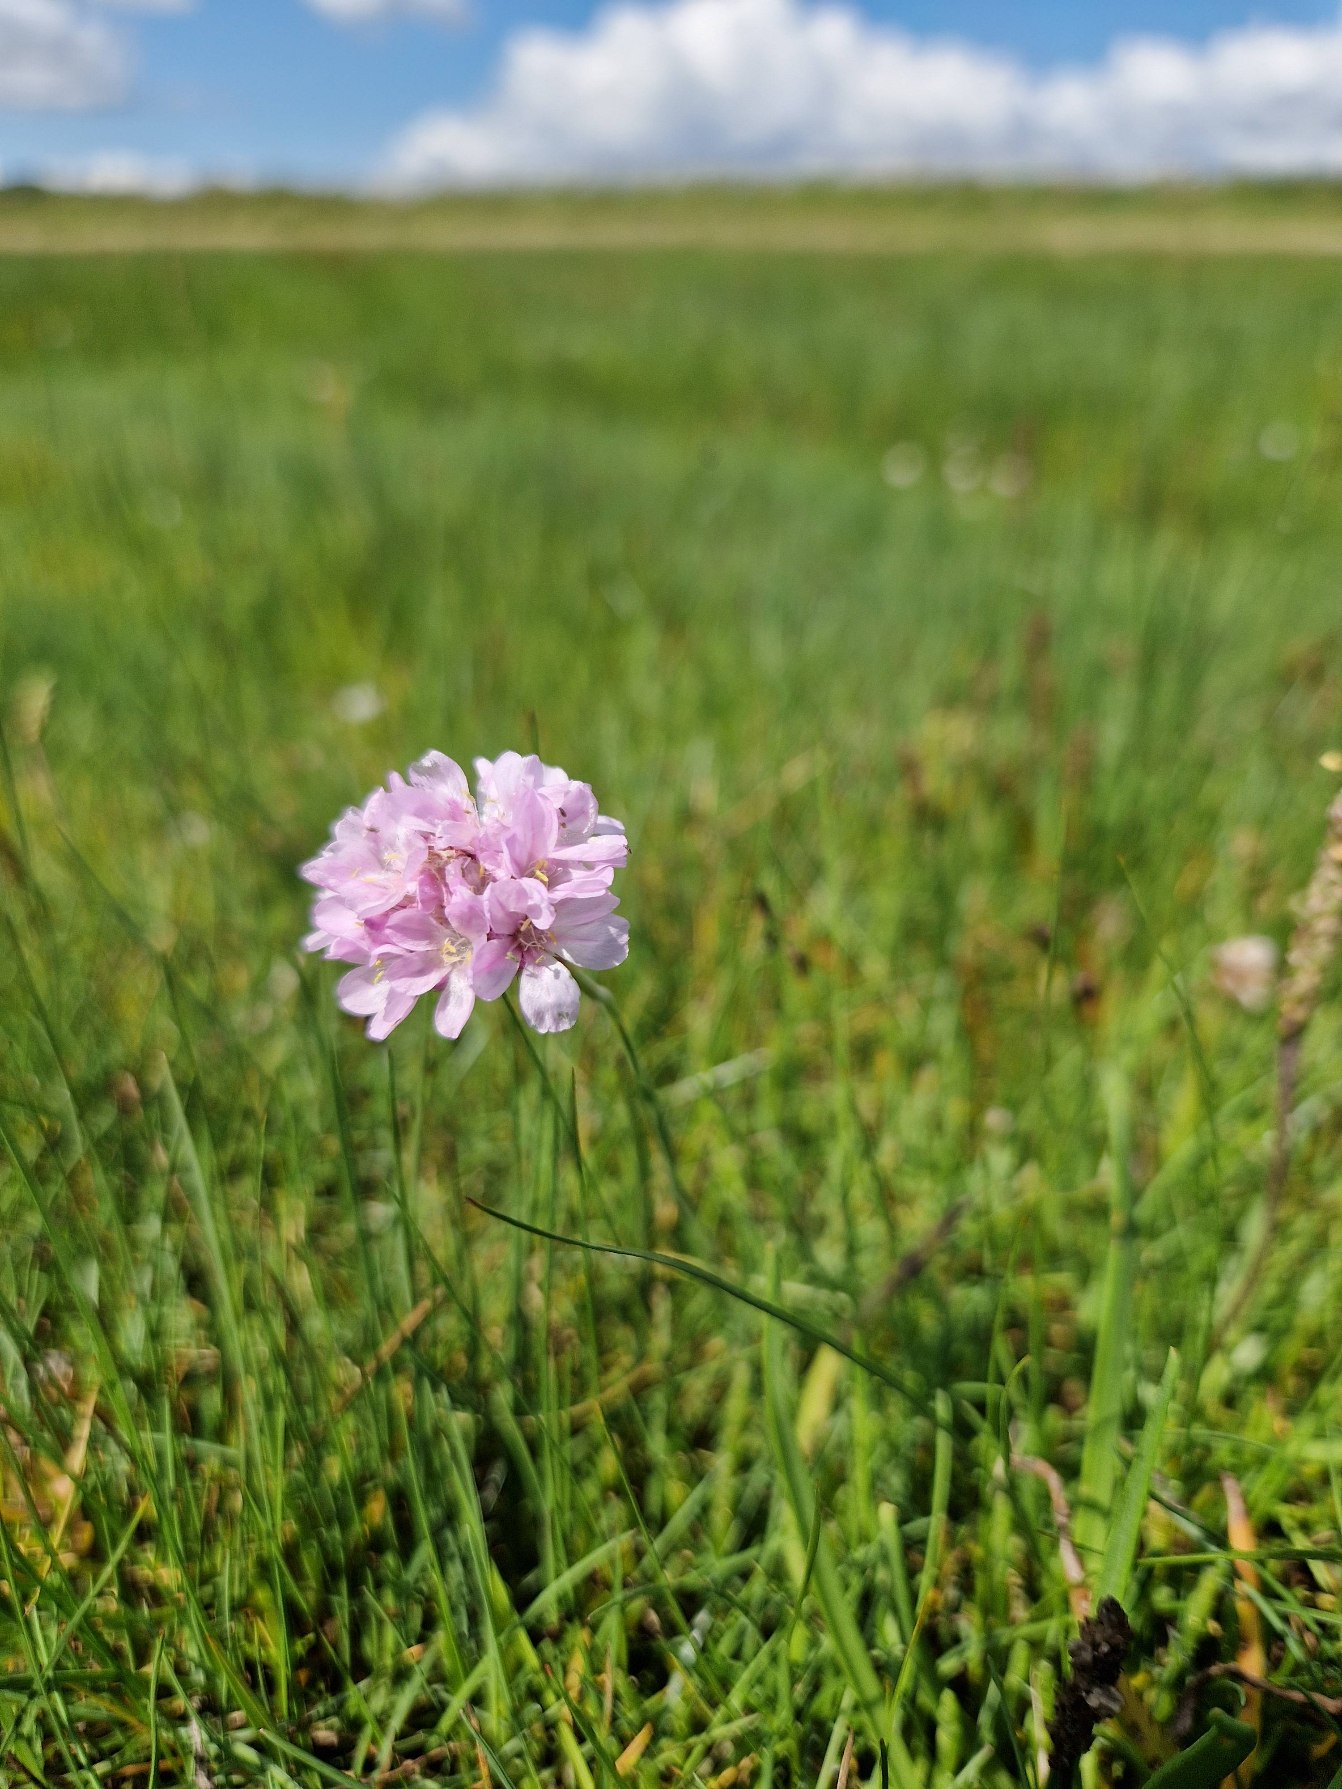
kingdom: Plantae
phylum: Tracheophyta
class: Magnoliopsida
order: Caryophyllales
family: Plumbaginaceae
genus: Armeria
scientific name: Armeria maritima
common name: Engelskgræs
